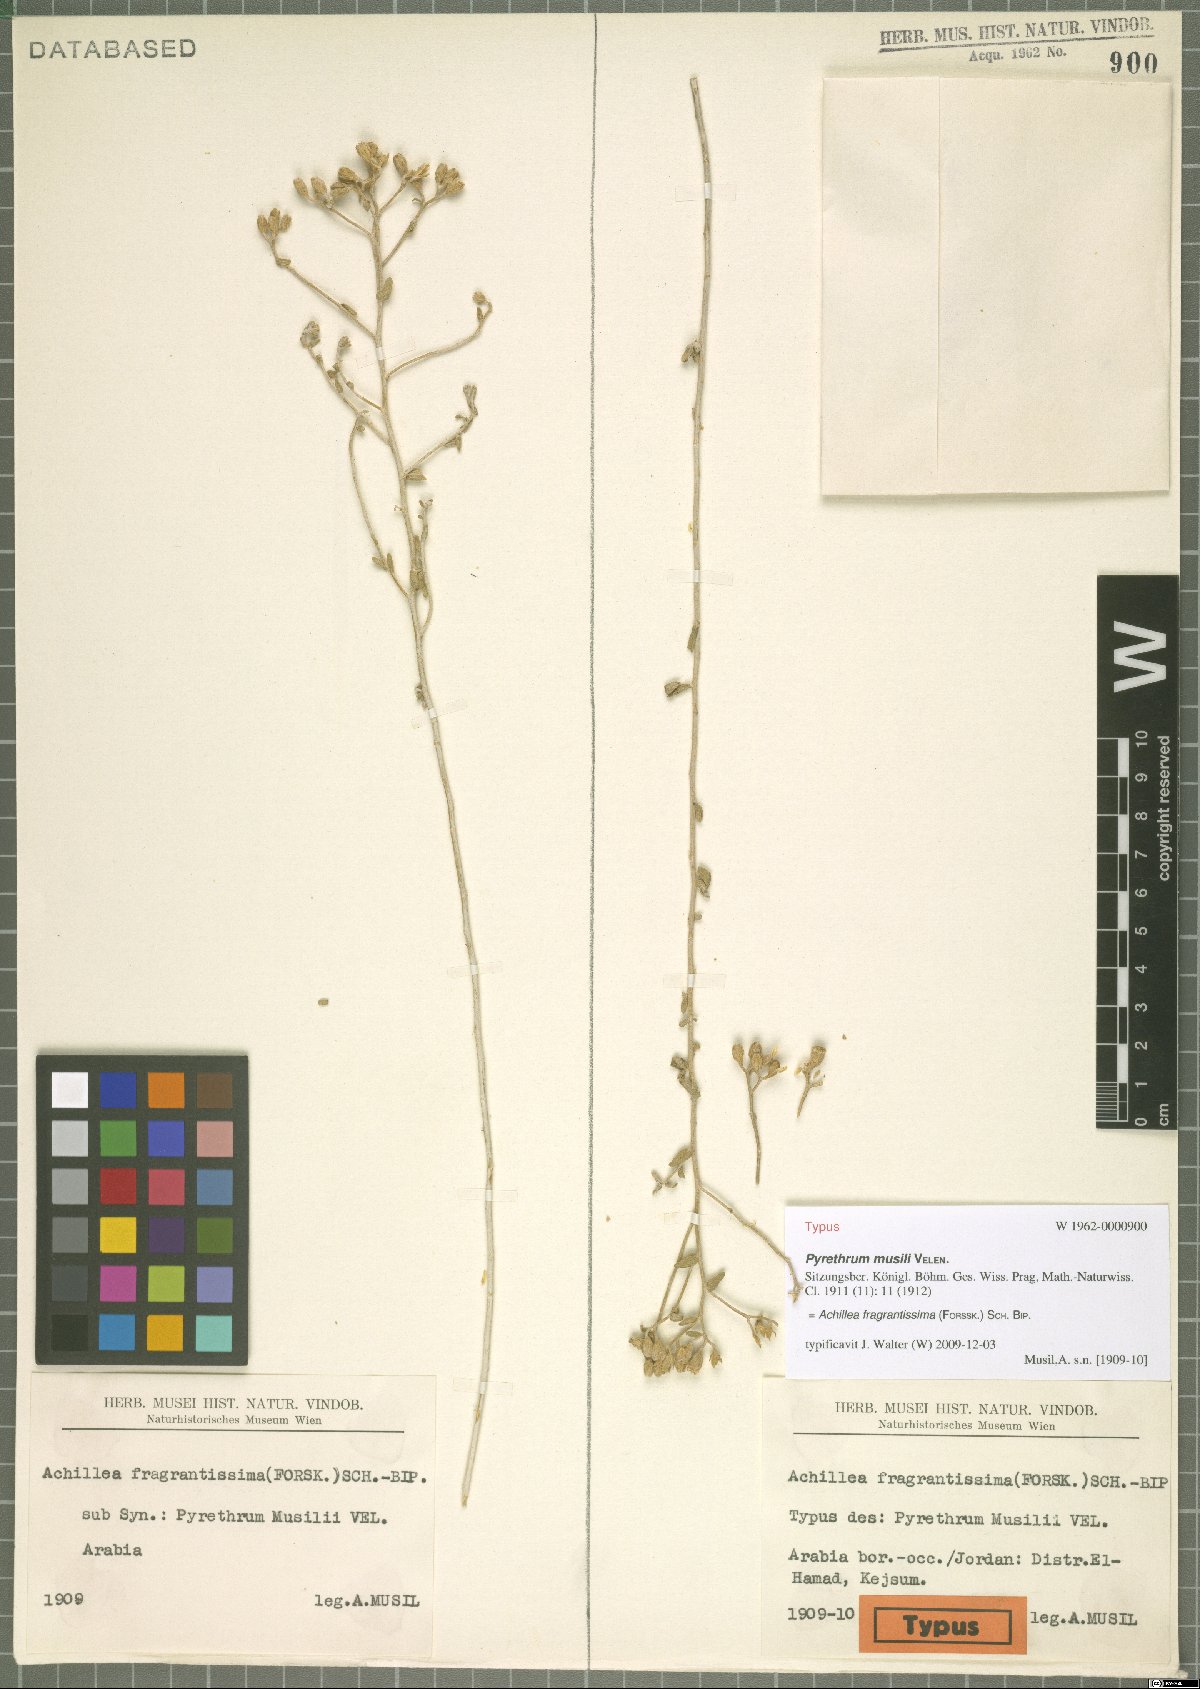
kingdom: Plantae
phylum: Tracheophyta
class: Magnoliopsida
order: Asterales
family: Asteraceae
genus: Achillea
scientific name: Achillea fragrantissima
